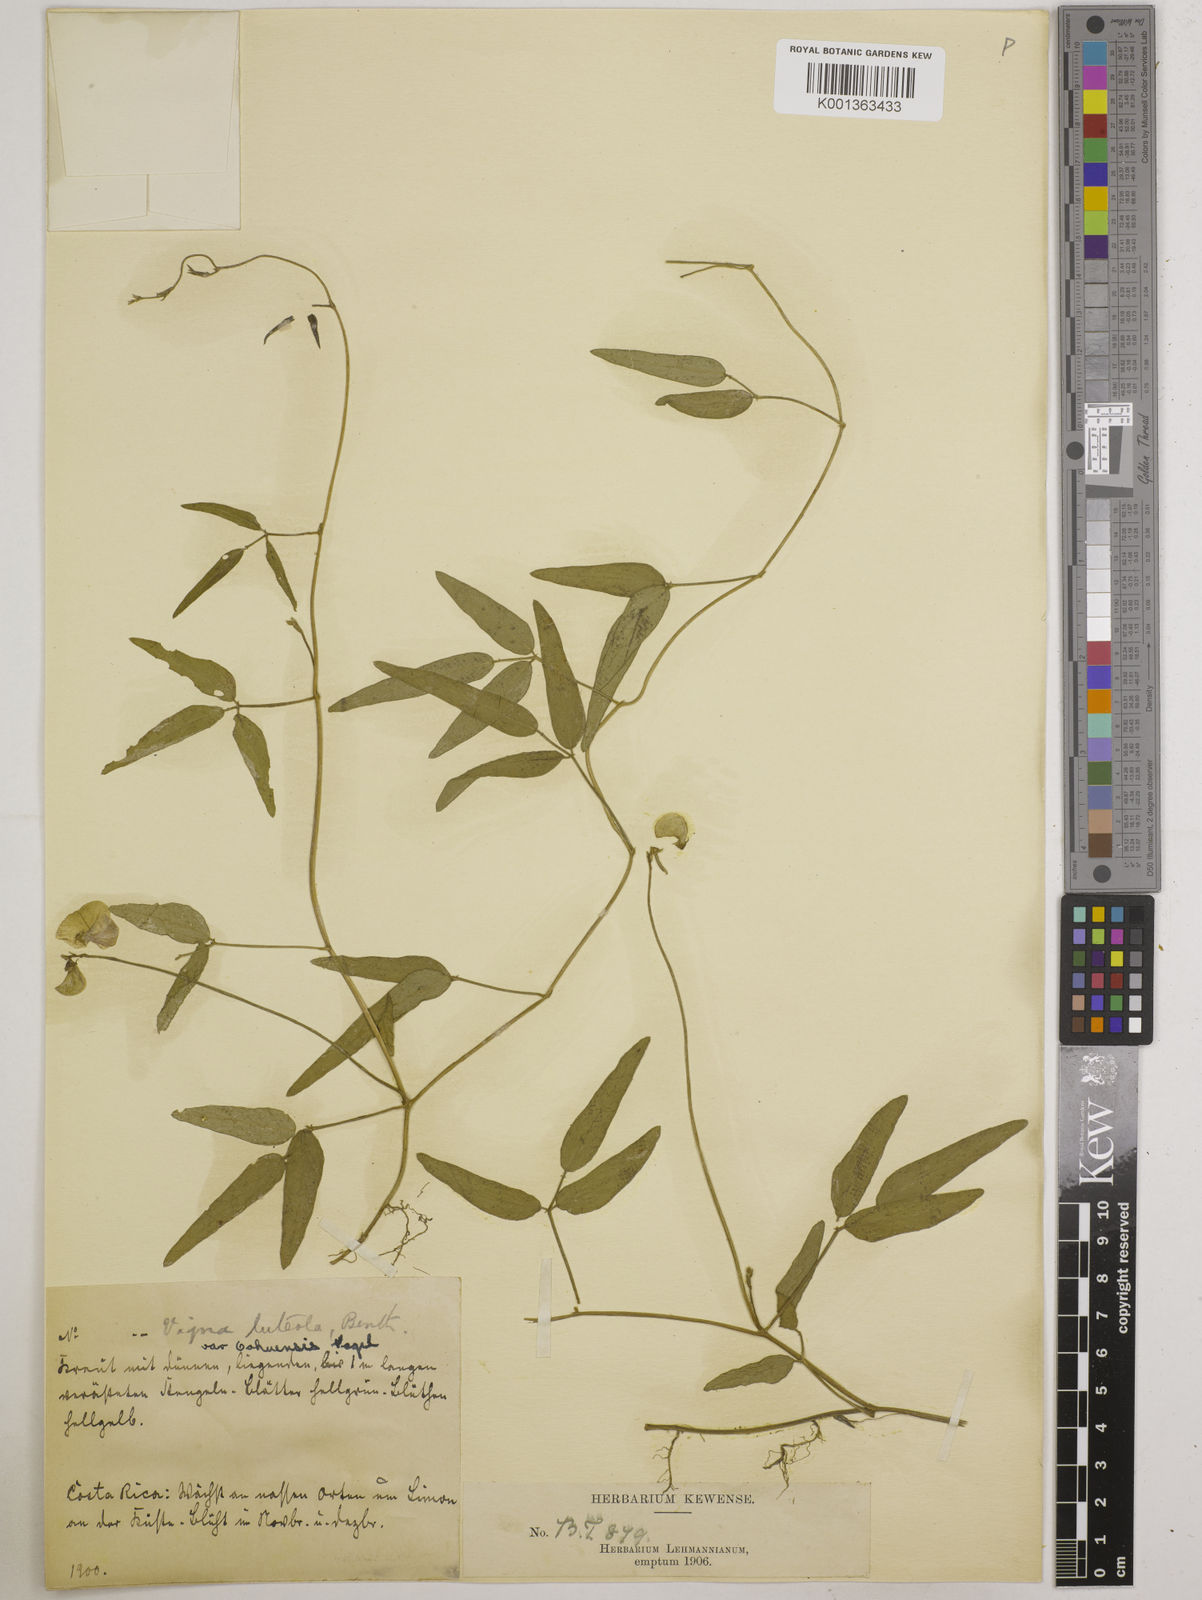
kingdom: Plantae
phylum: Tracheophyta
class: Magnoliopsida
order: Fabales
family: Fabaceae
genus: Vigna
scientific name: Vigna luteola
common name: Hairypod cowpea
